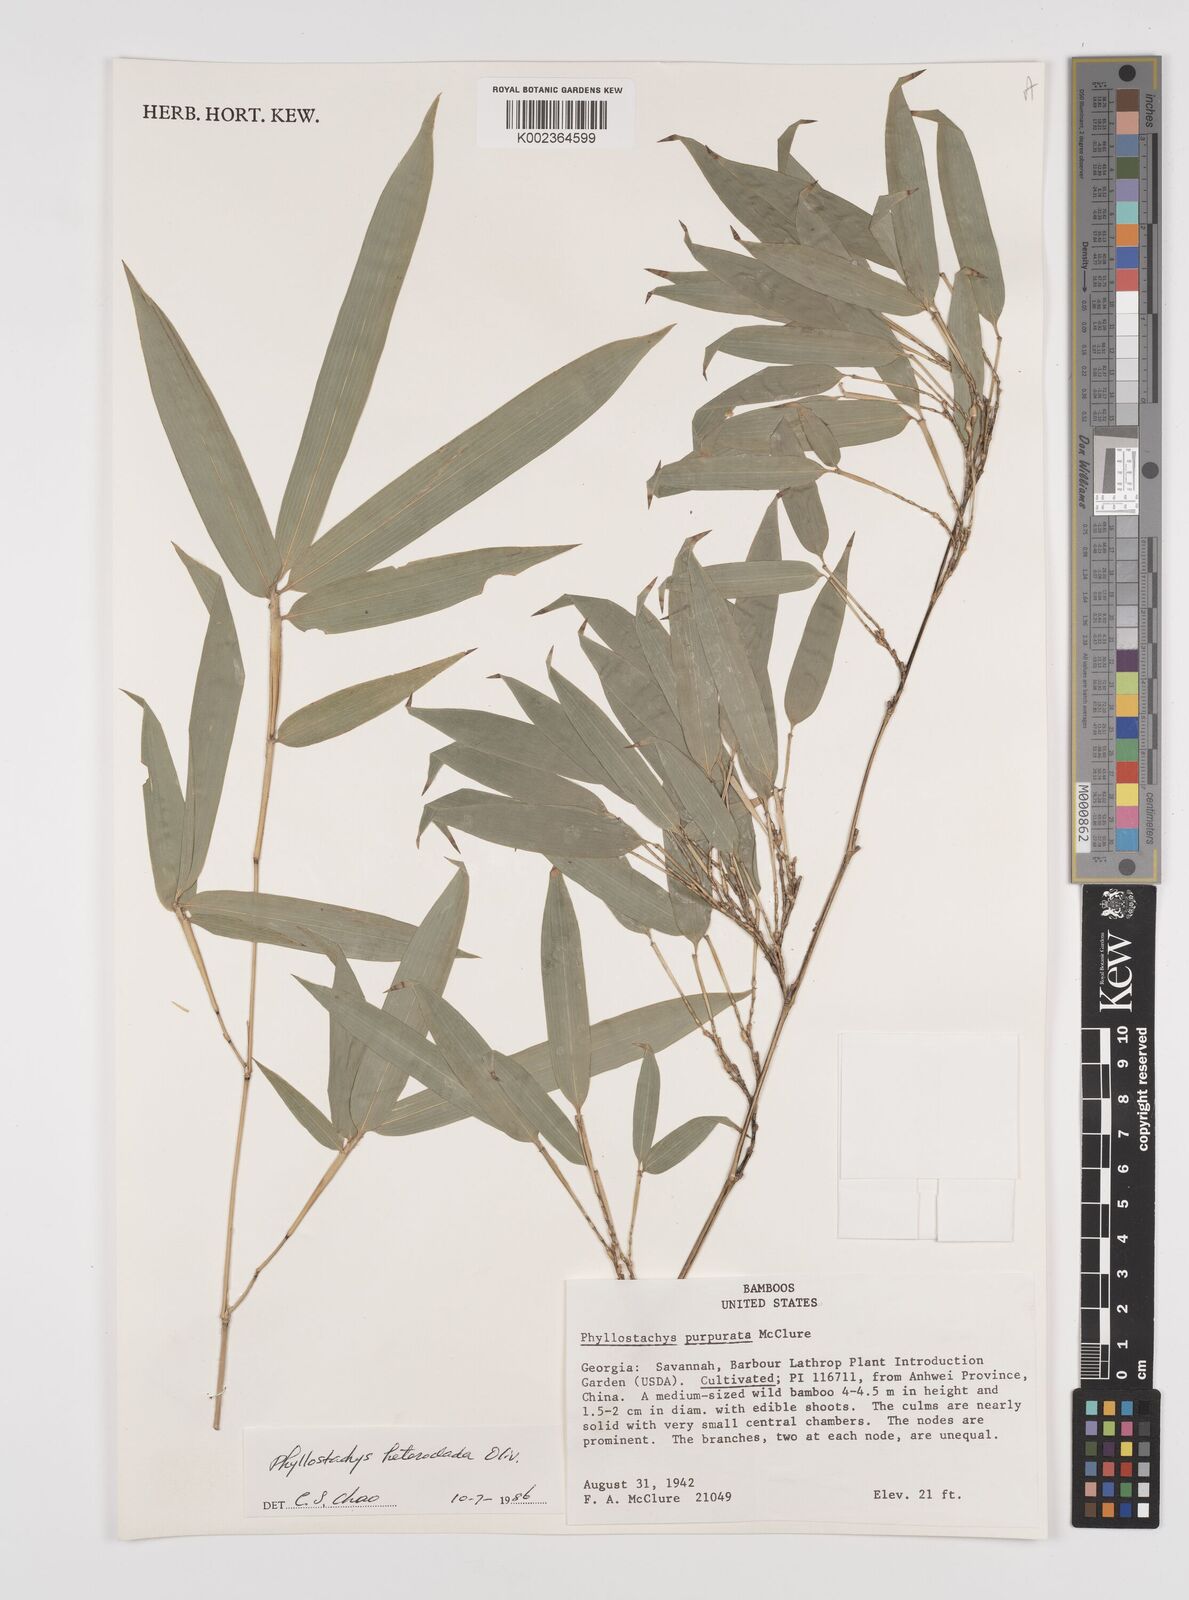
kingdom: Plantae
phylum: Tracheophyta
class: Liliopsida
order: Poales
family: Poaceae
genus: Phyllostachys
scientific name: Phyllostachys heteroclada
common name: Fishscale bamboo
